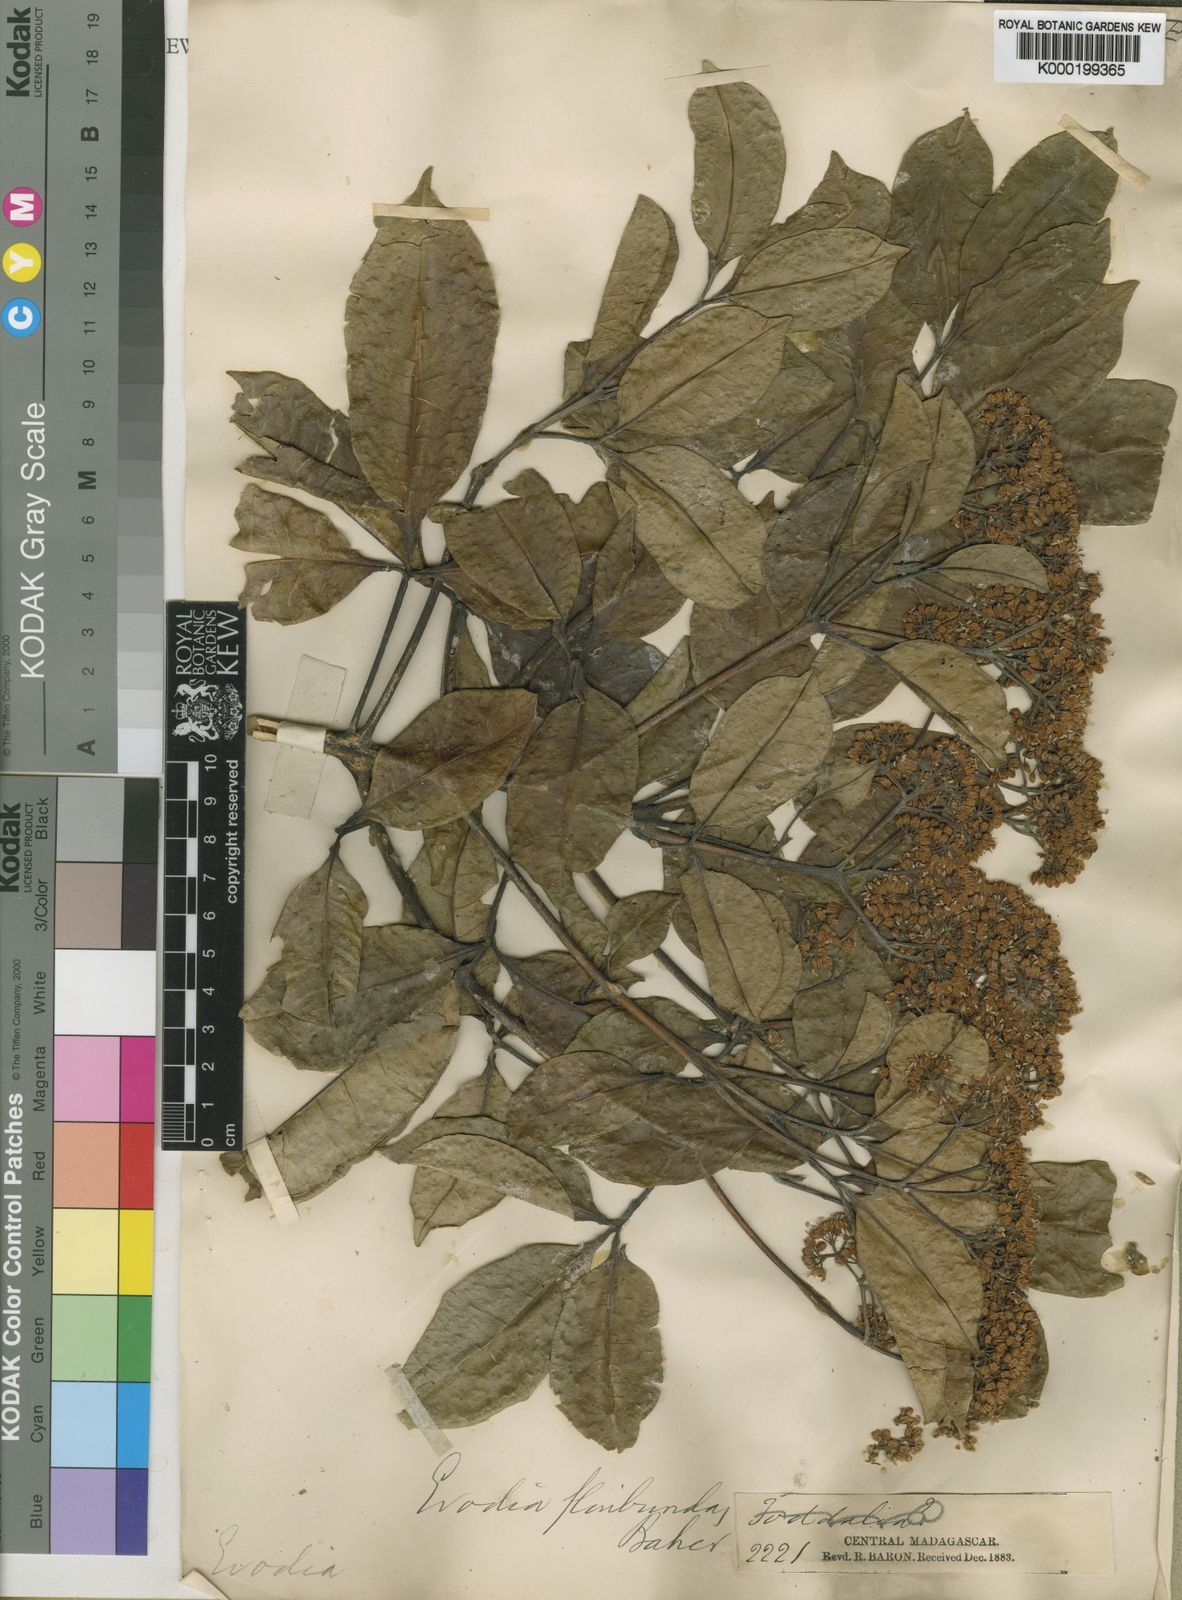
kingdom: Plantae
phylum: Tracheophyta
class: Magnoliopsida
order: Sapindales
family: Rutaceae
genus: Melicope
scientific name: Melicope floribunda
